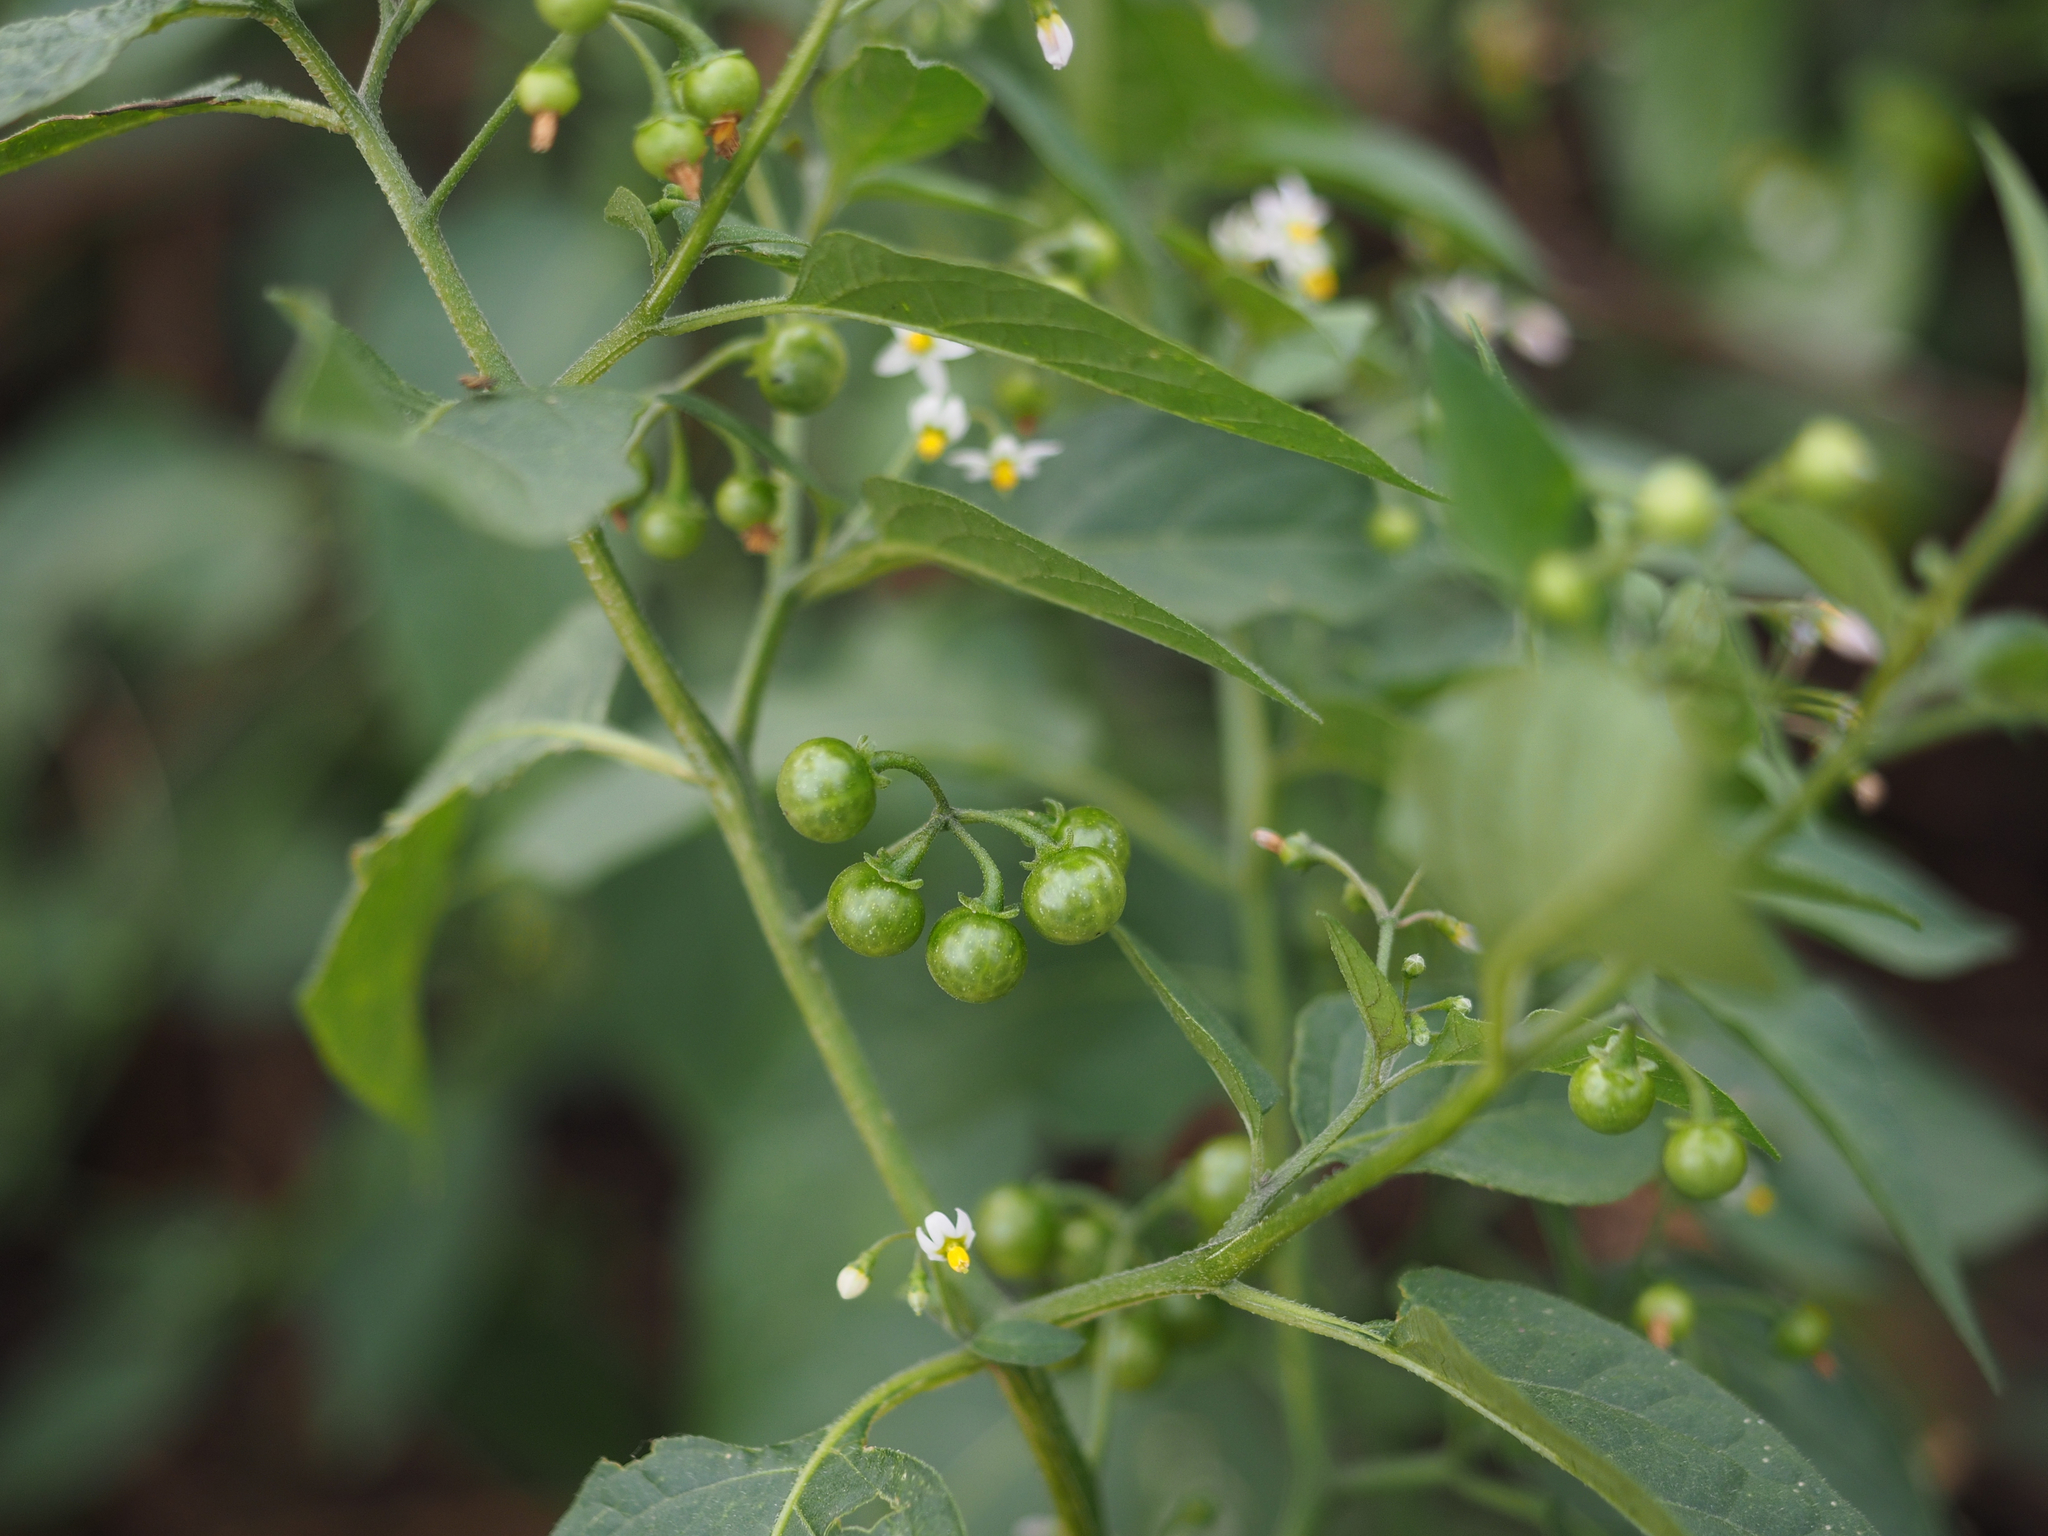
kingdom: Plantae
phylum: Tracheophyta
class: Magnoliopsida
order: Solanales
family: Solanaceae
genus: Solanum
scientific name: Solanum americanum
